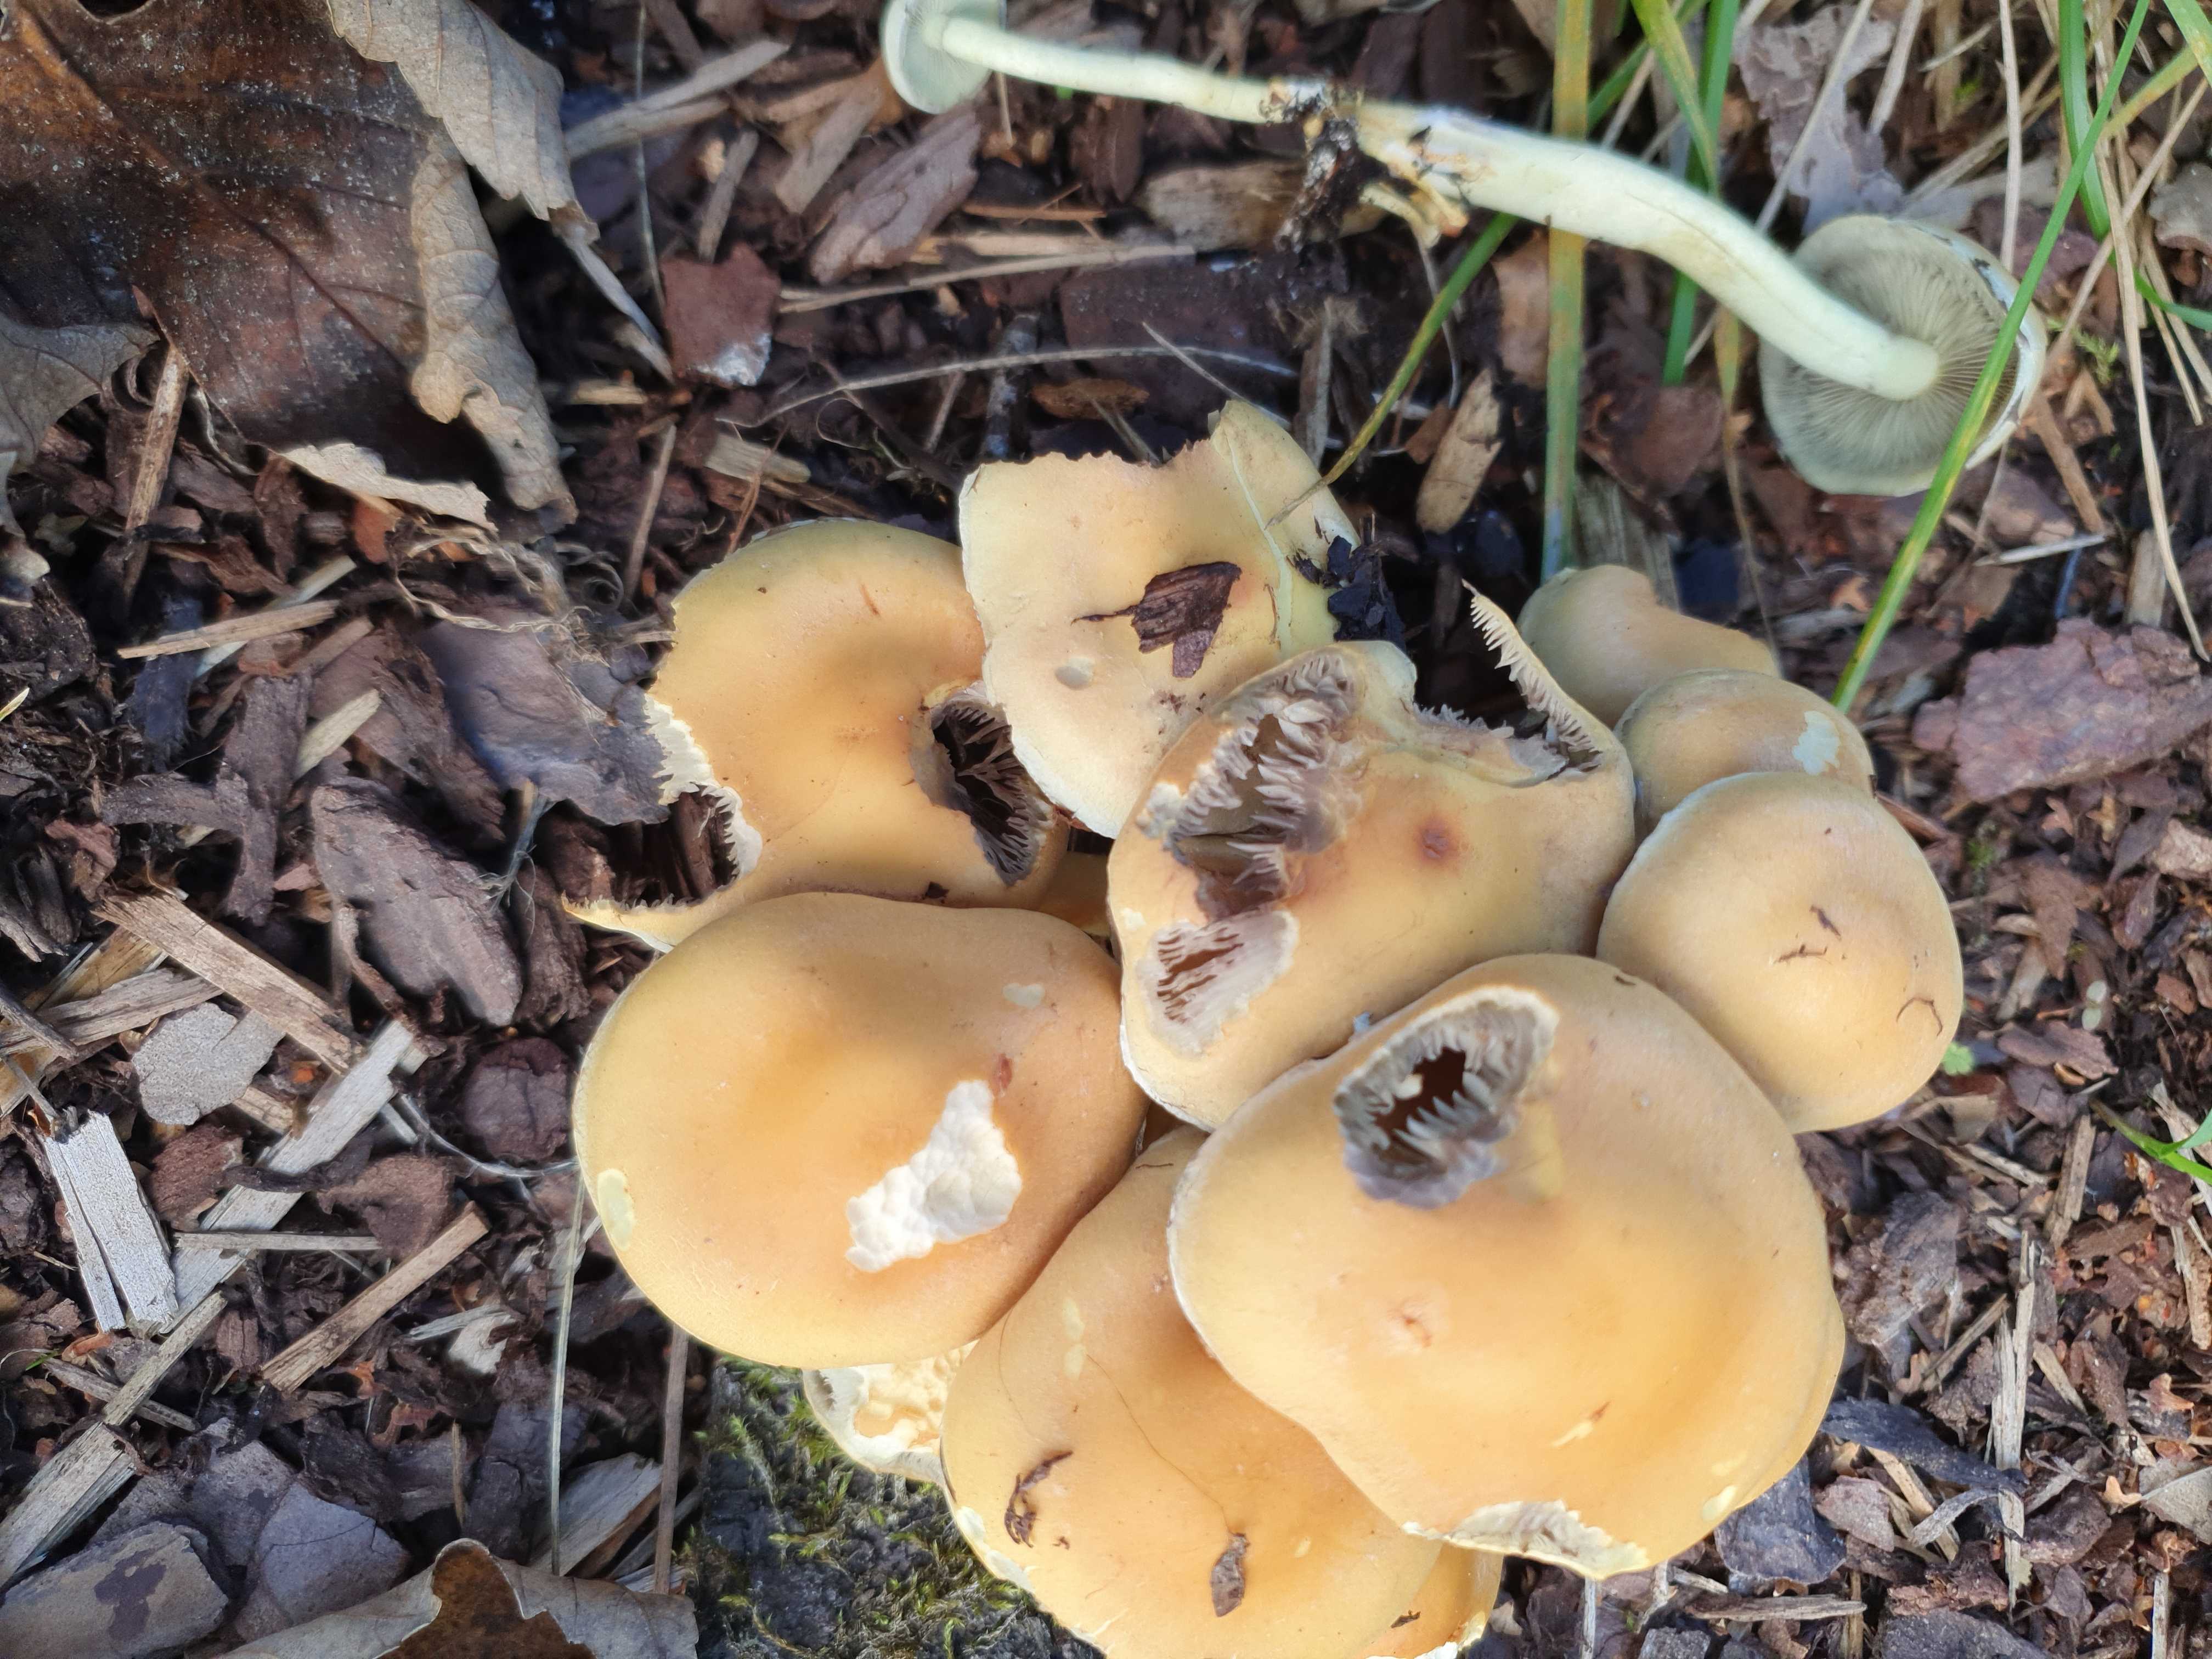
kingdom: Fungi
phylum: Basidiomycota
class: Agaricomycetes
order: Agaricales
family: Strophariaceae
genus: Hypholoma
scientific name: Hypholoma fasciculare
